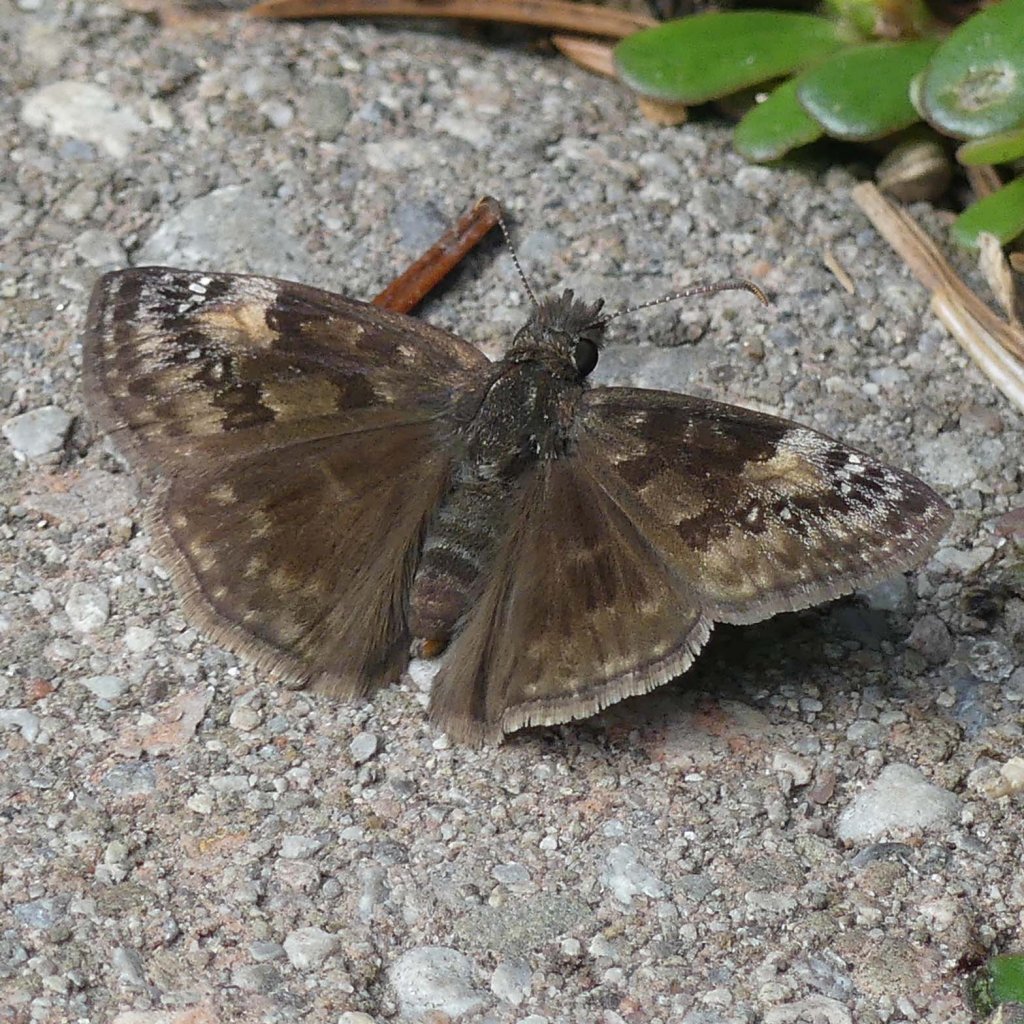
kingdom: Animalia
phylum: Arthropoda
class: Insecta
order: Lepidoptera
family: Hesperiidae
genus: Gesta
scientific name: Gesta
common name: Wild Indigo Duskywing
